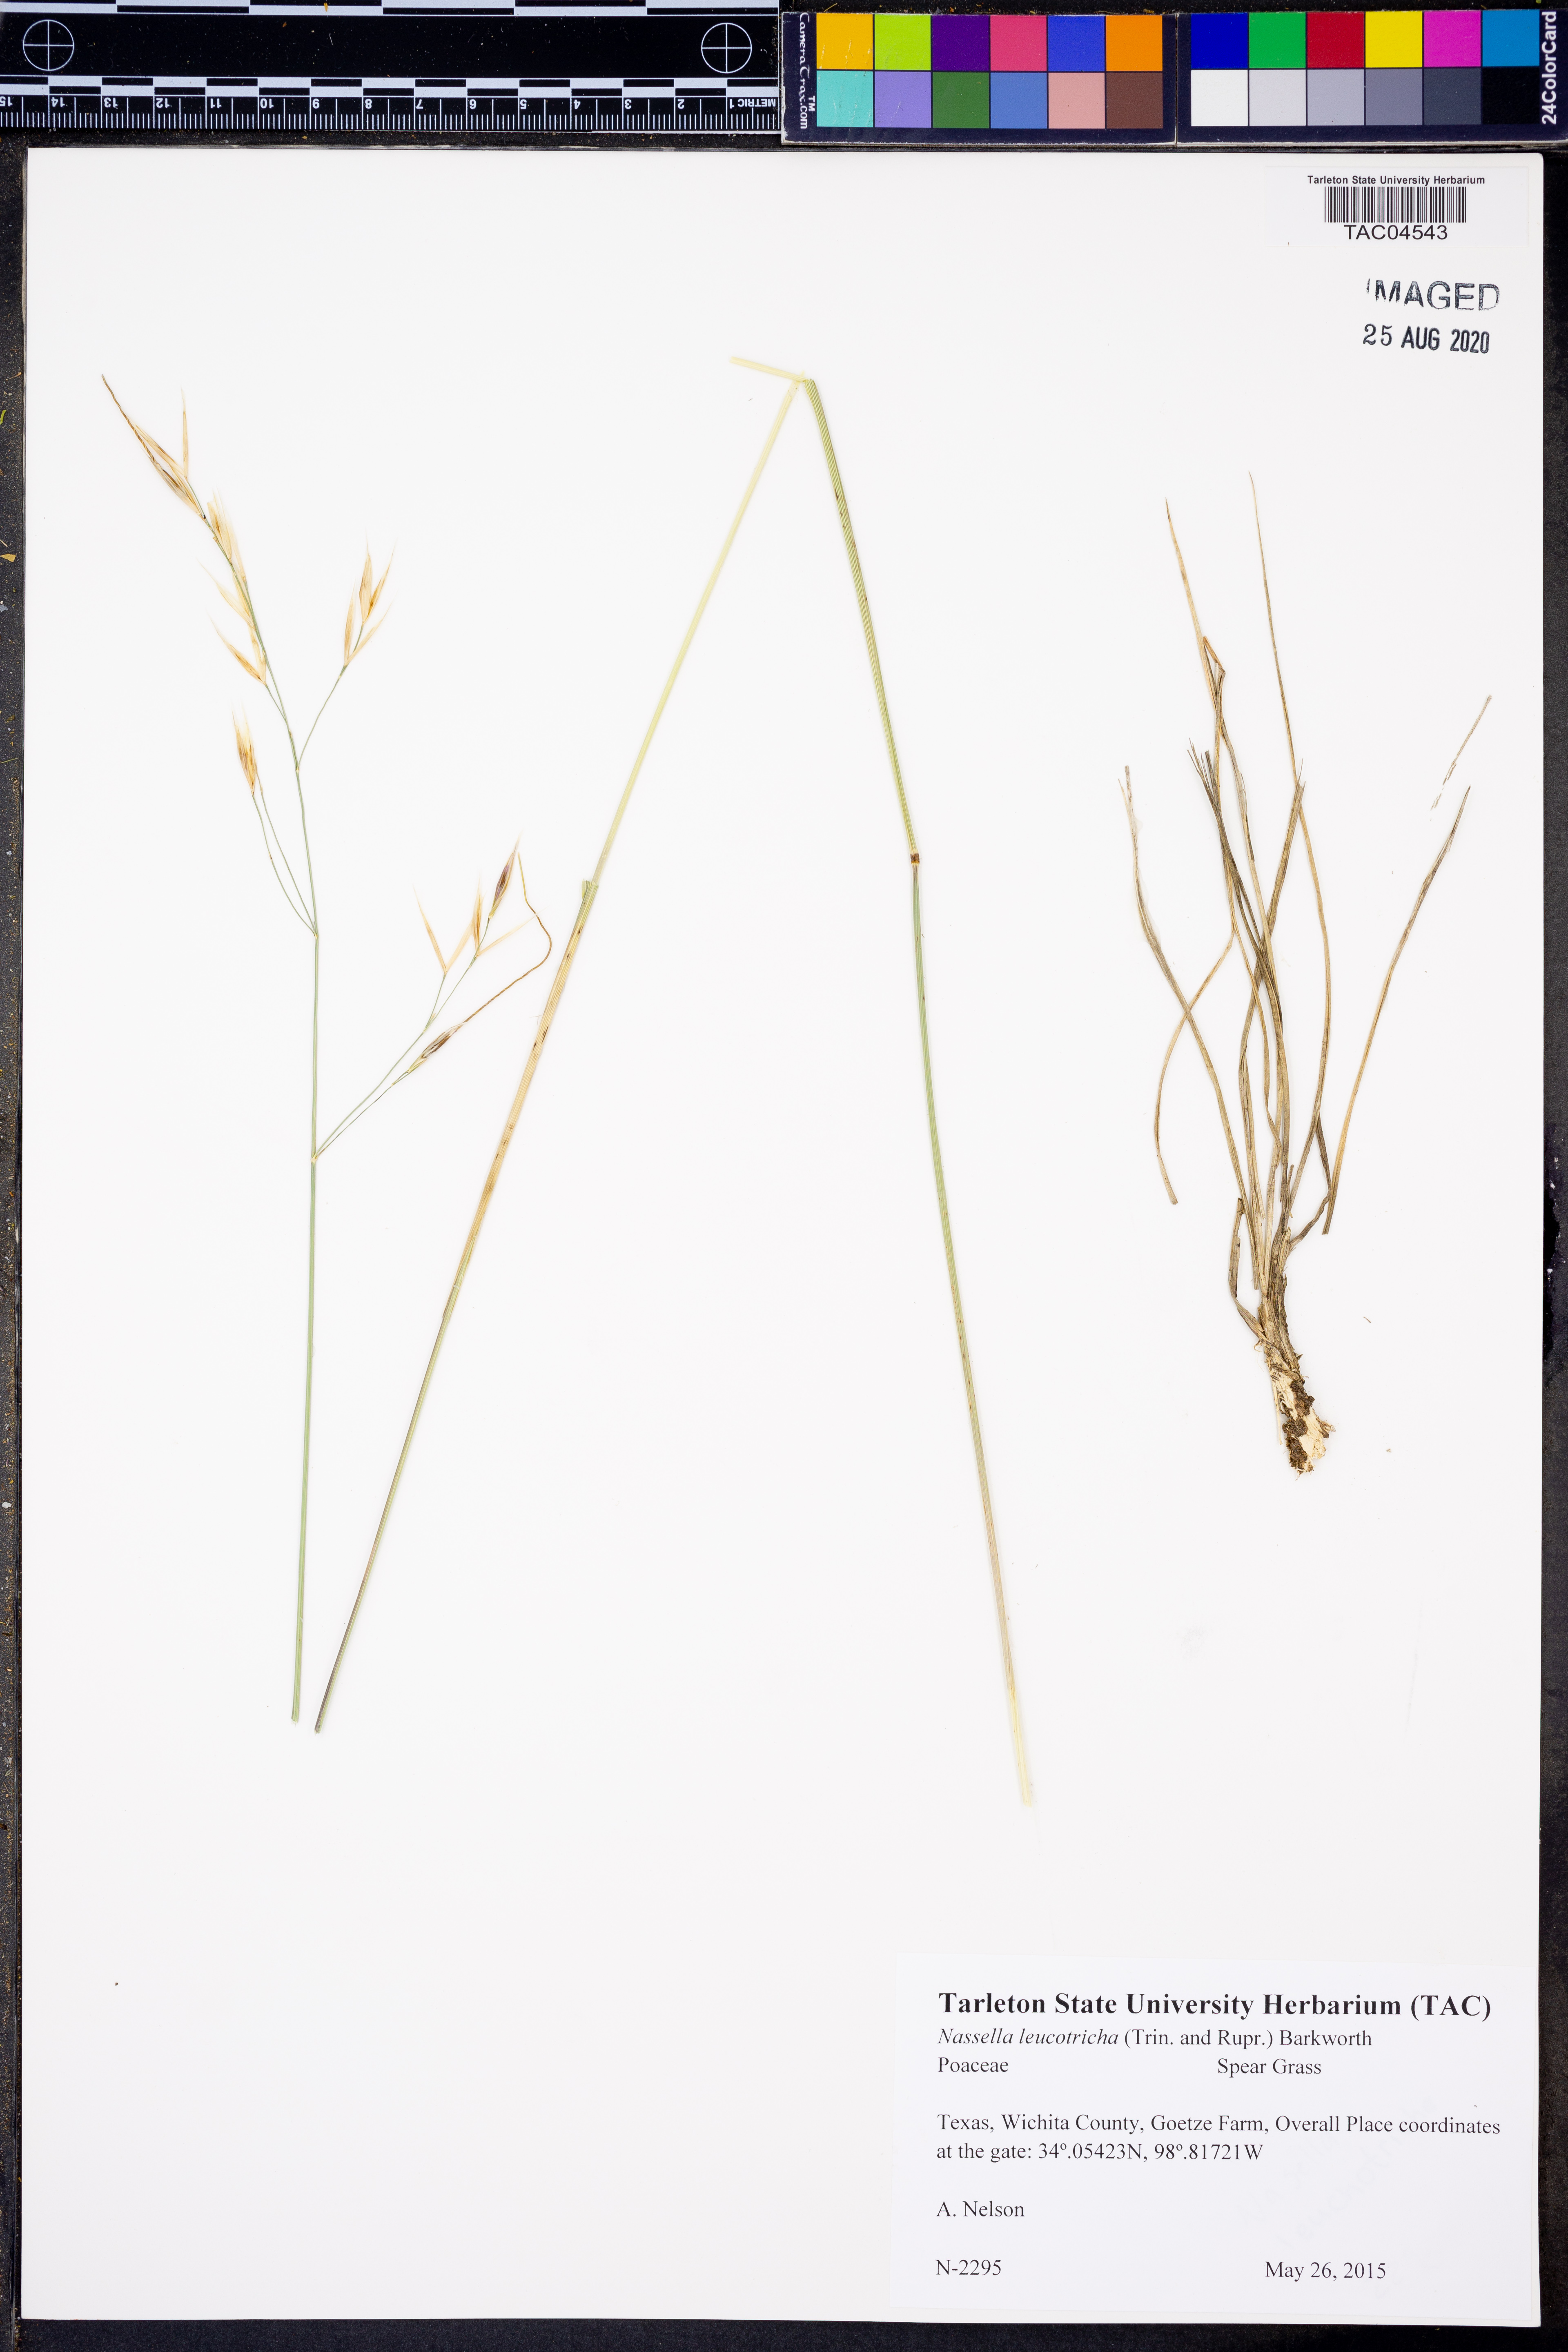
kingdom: Plantae
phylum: Tracheophyta
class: Liliopsida
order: Poales
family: Poaceae
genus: Nassella
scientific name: Nassella leucotricha
